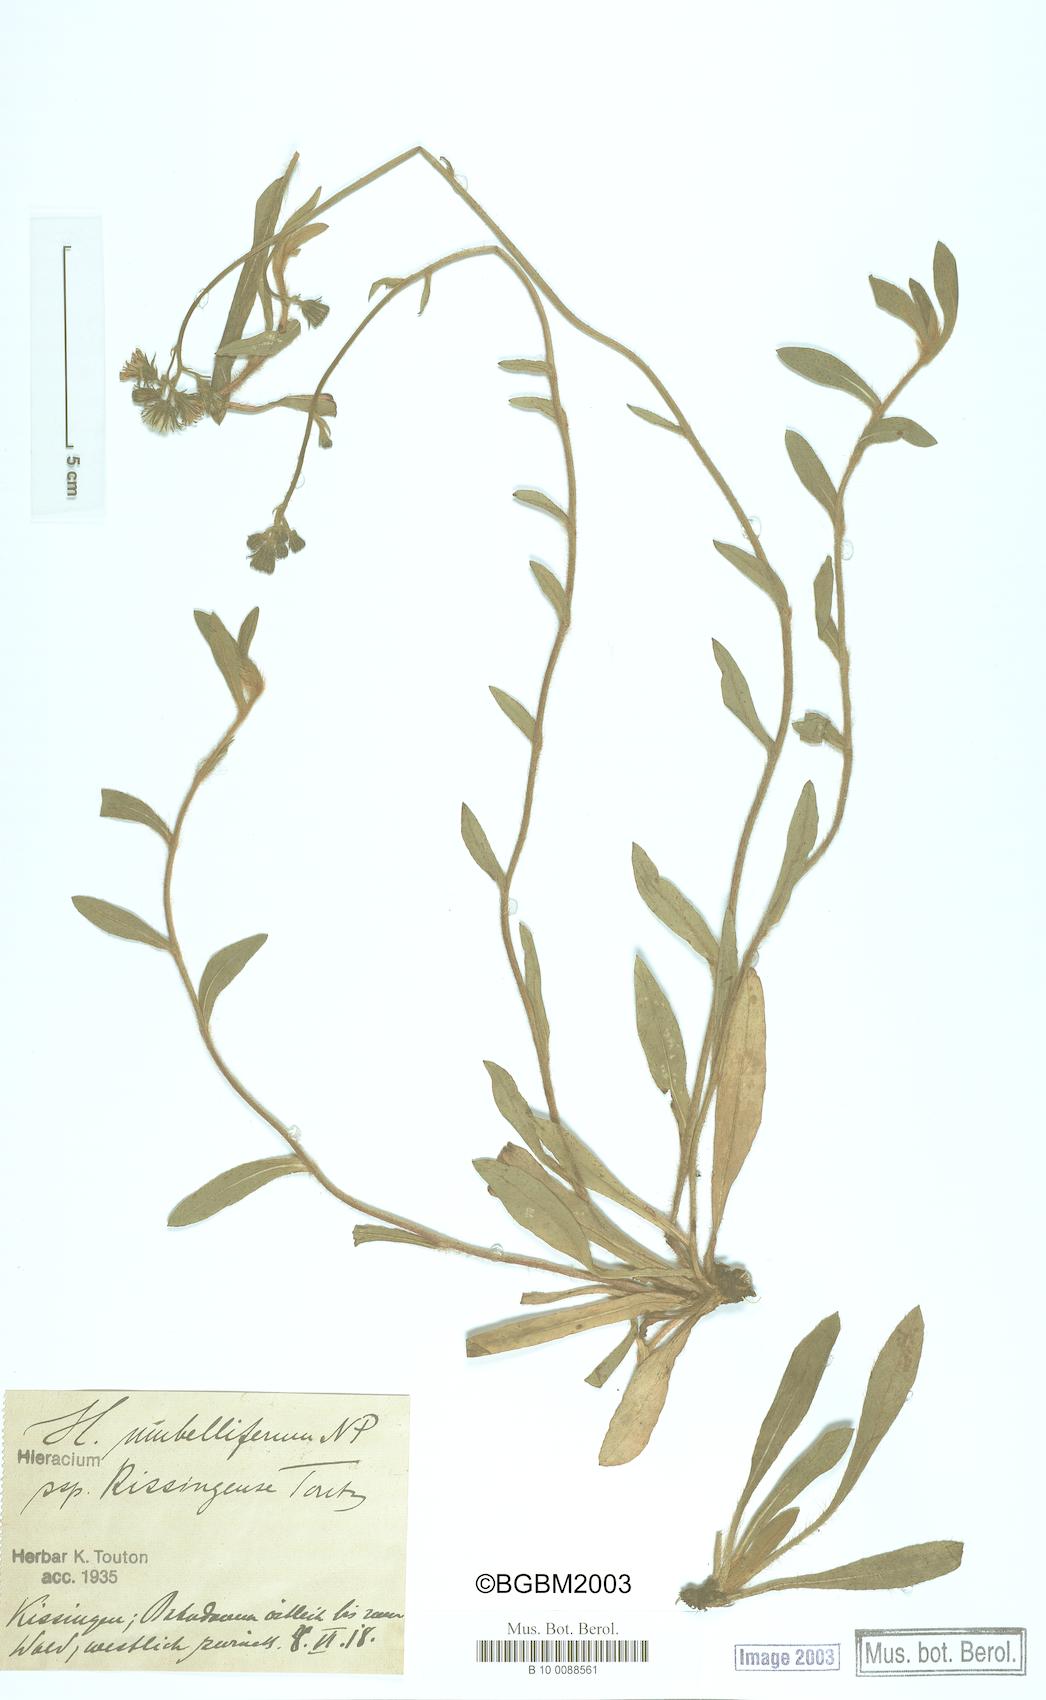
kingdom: Plantae
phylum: Tracheophyta
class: Magnoliopsida
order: Asterales
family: Asteraceae
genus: Pilosella
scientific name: Pilosella densiflora
